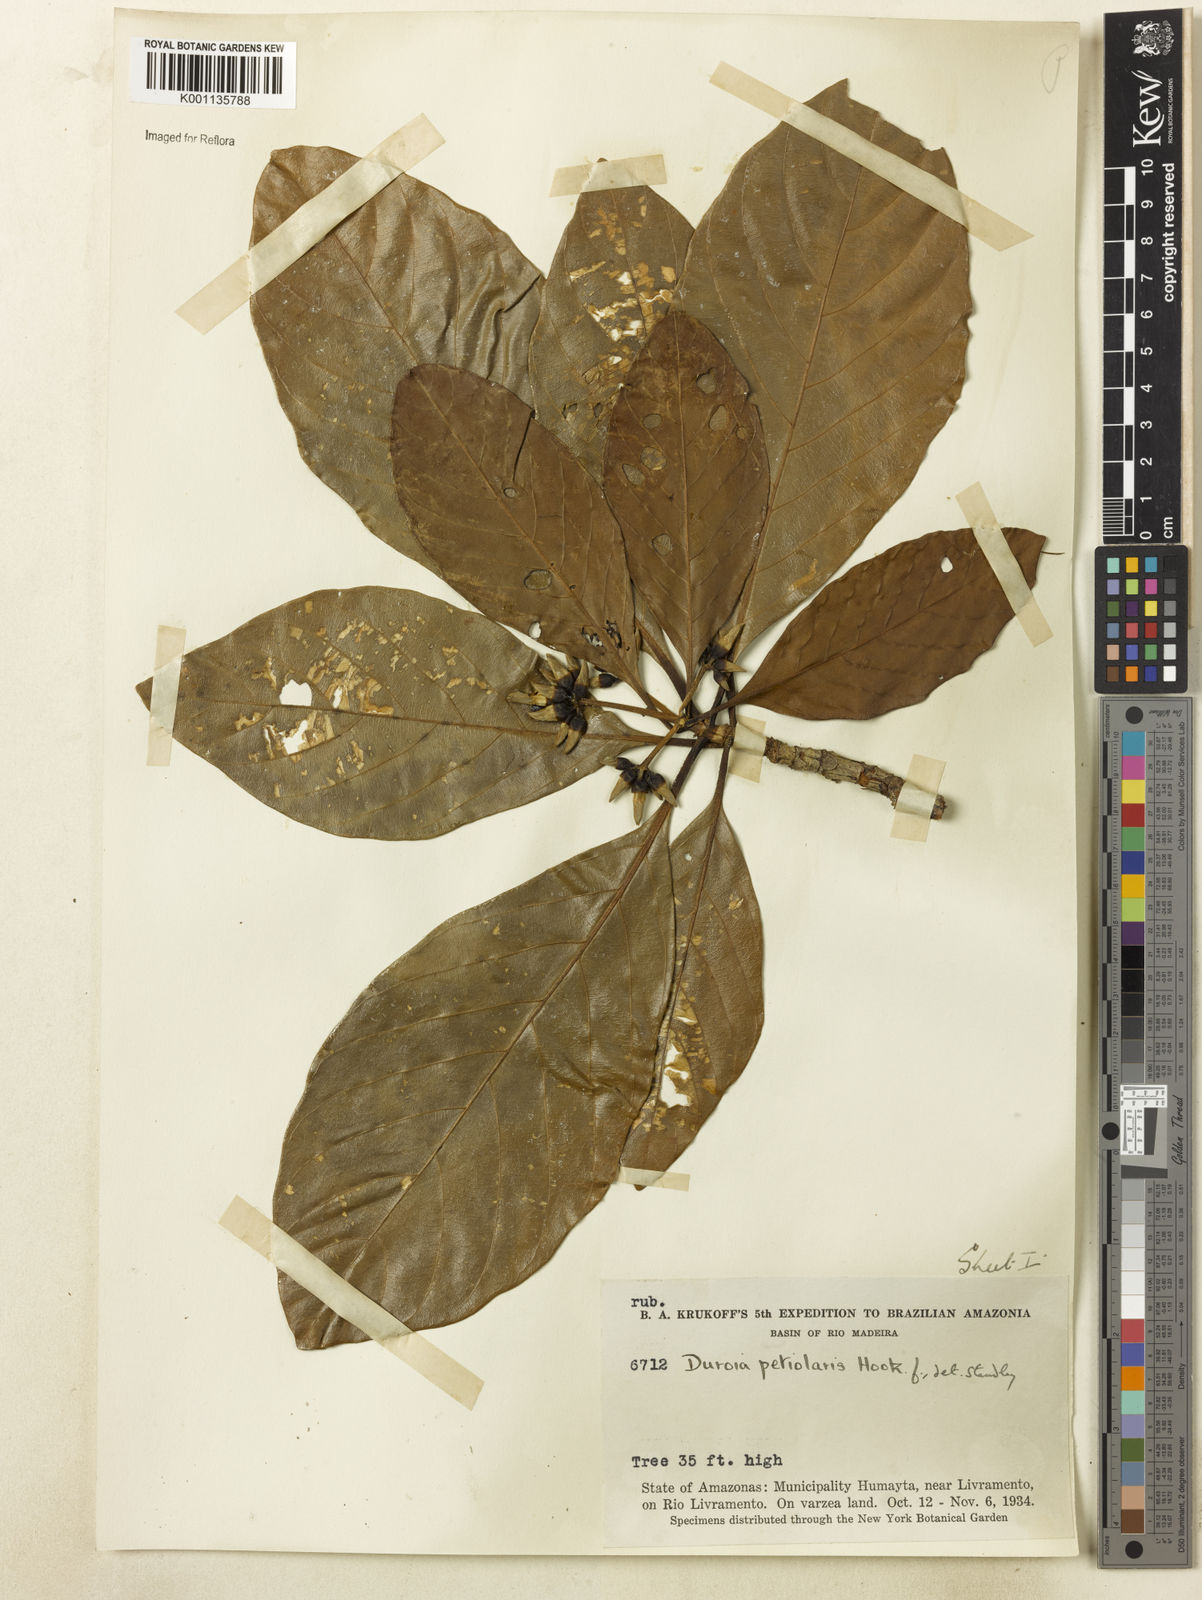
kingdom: Plantae
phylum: Tracheophyta
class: Magnoliopsida
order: Gentianales
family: Rubiaceae
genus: Duroia
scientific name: Duroia petiolaris
